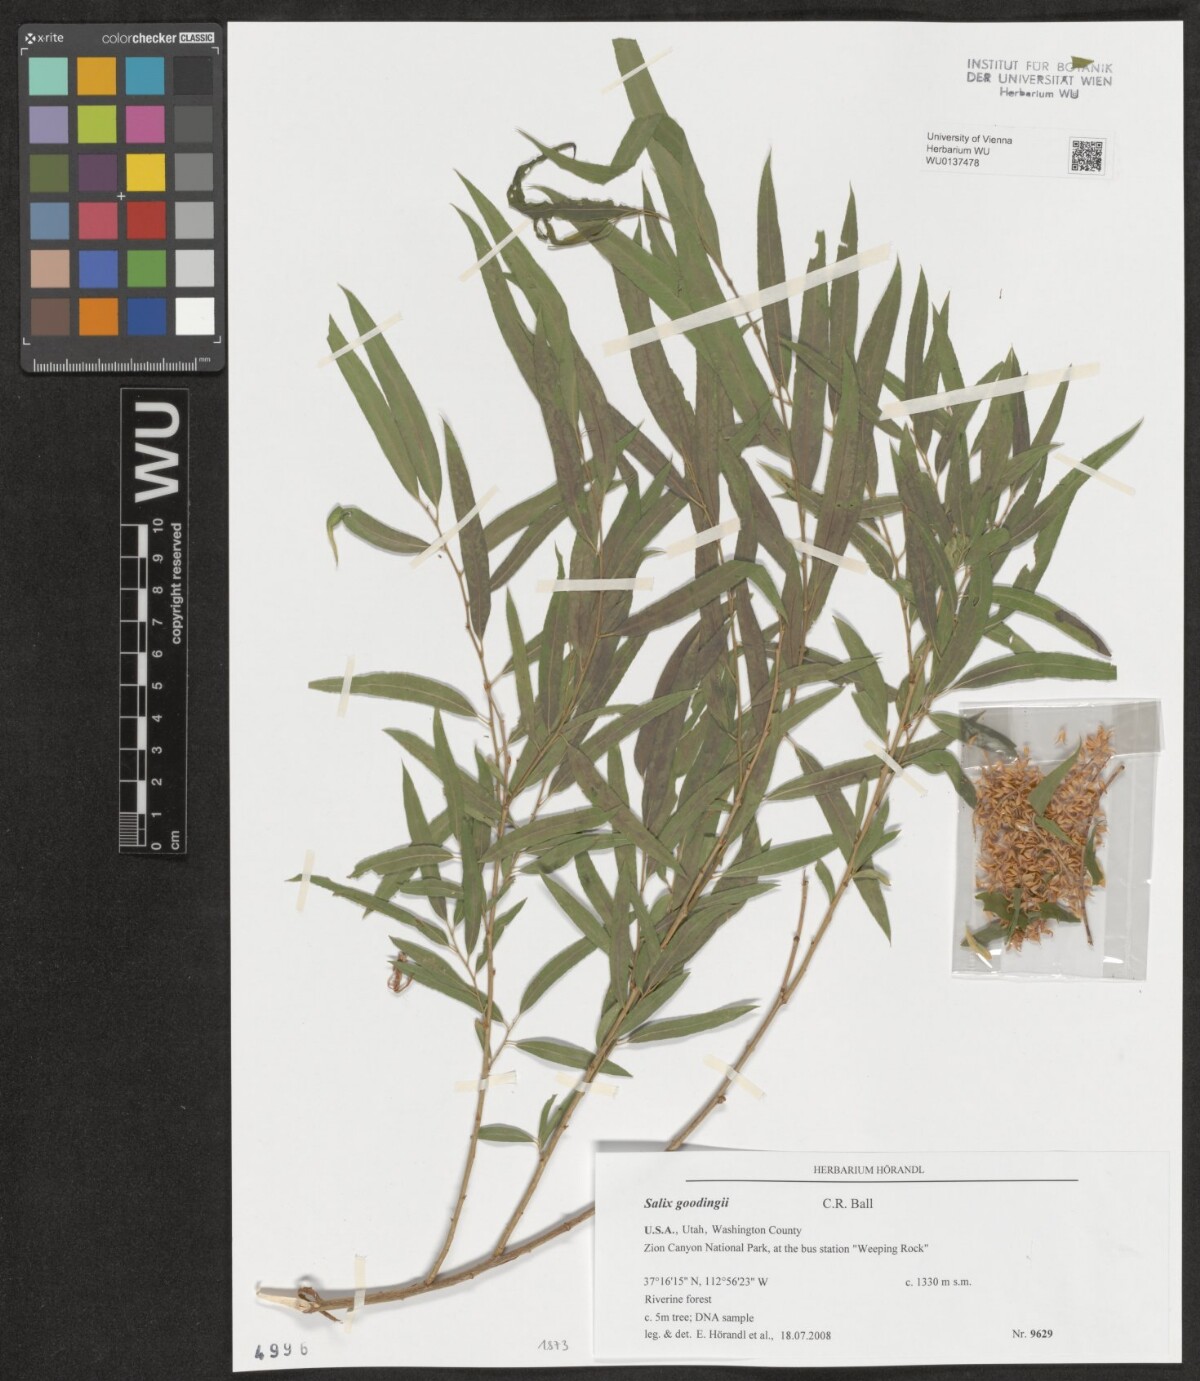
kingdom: Plantae
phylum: Tracheophyta
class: Magnoliopsida
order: Malpighiales
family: Salicaceae
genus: Salix
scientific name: Salix gooddingii
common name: Goodding's willow
